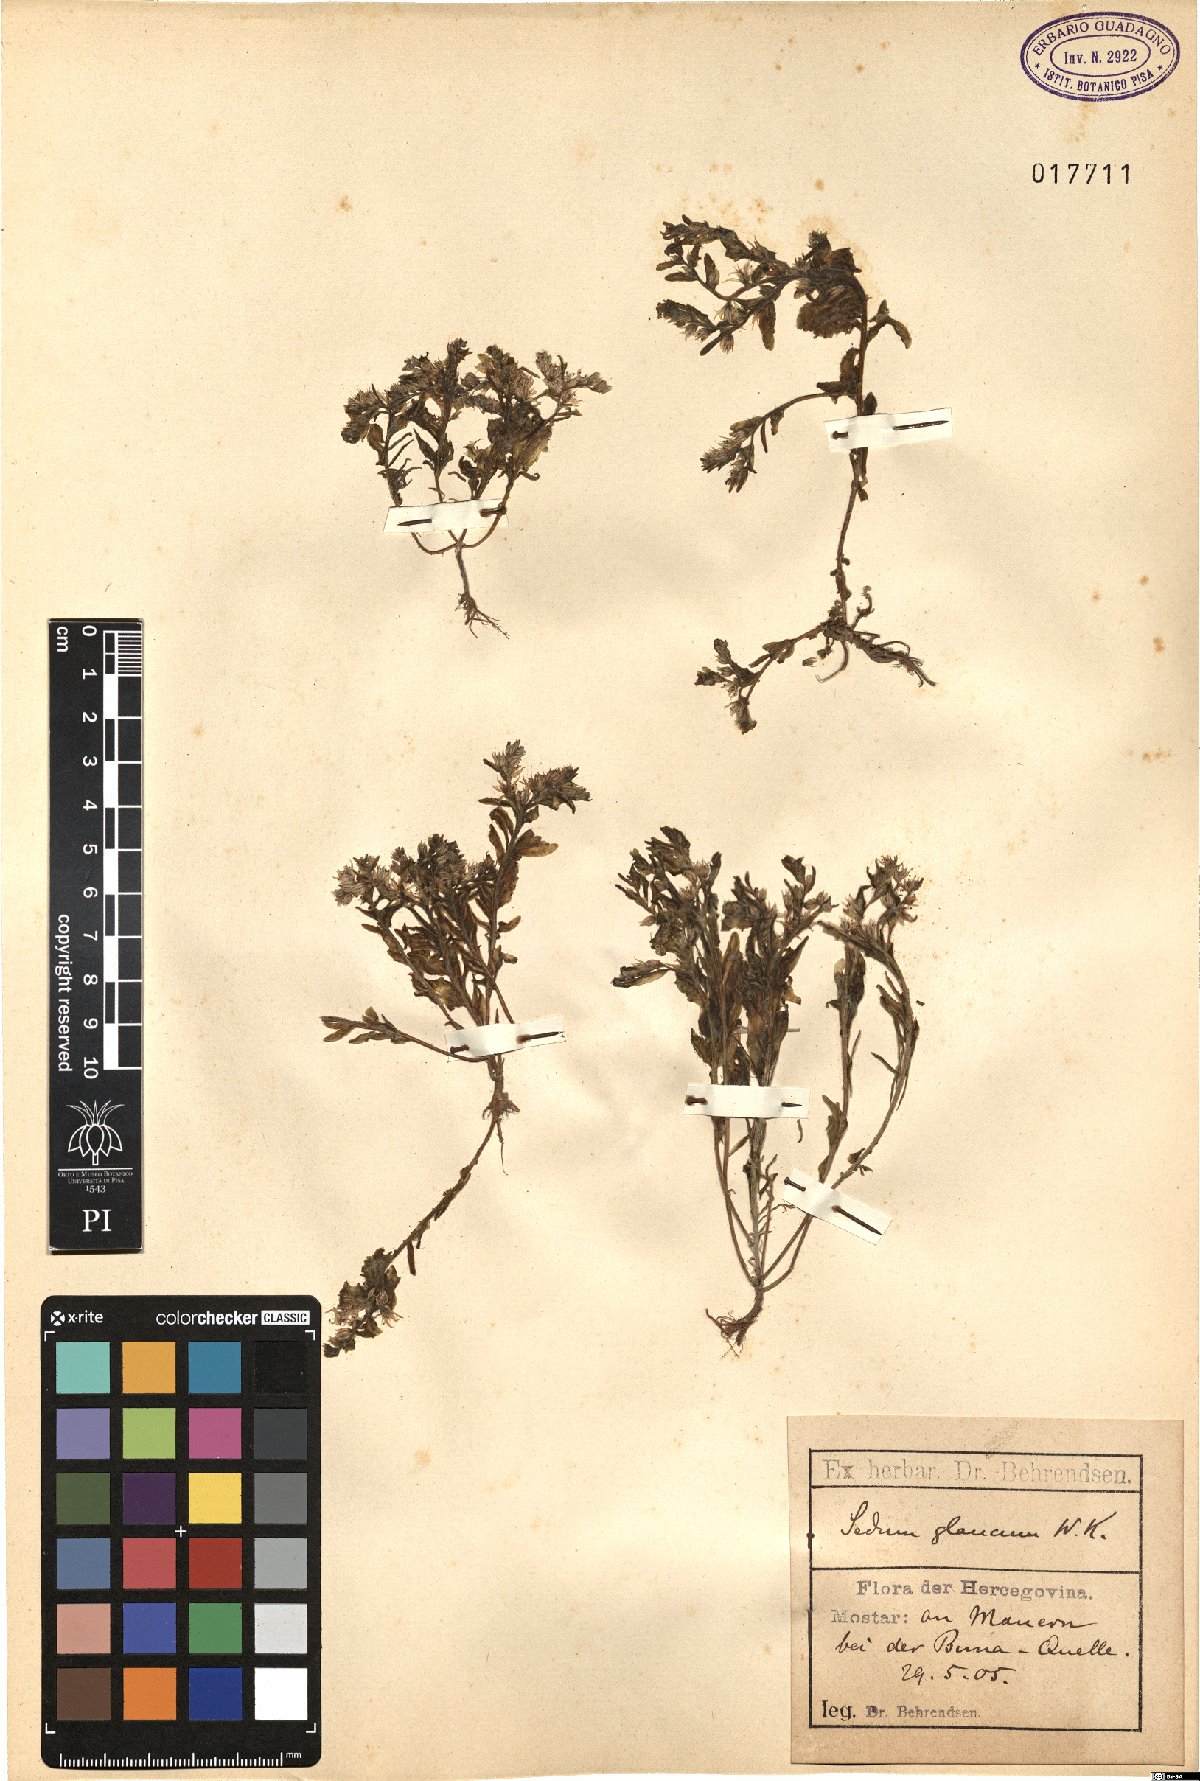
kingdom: Plantae
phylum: Tracheophyta
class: Magnoliopsida
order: Saxifragales
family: Crassulaceae
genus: Sedum
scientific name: Sedum hispanicum
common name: Spanish stonecrop
